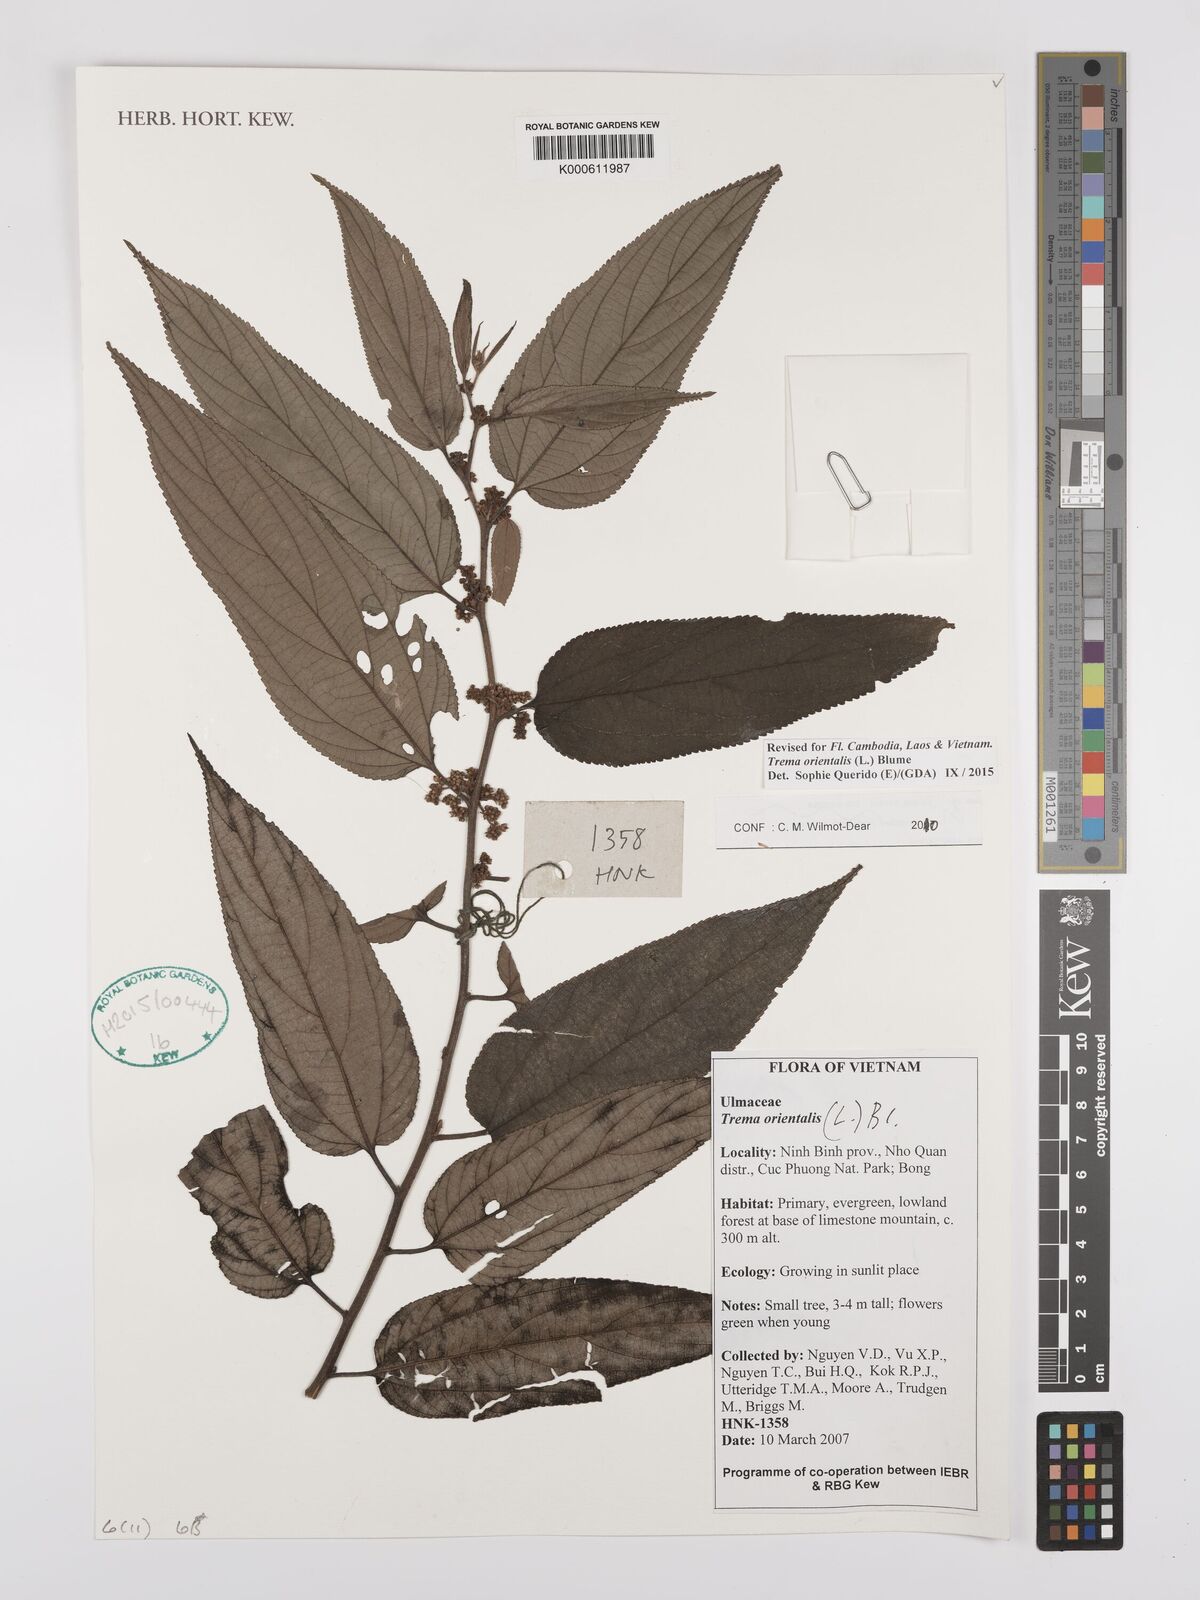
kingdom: Plantae
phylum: Tracheophyta
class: Magnoliopsida
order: Rosales
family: Cannabaceae
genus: Trema
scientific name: Trema
